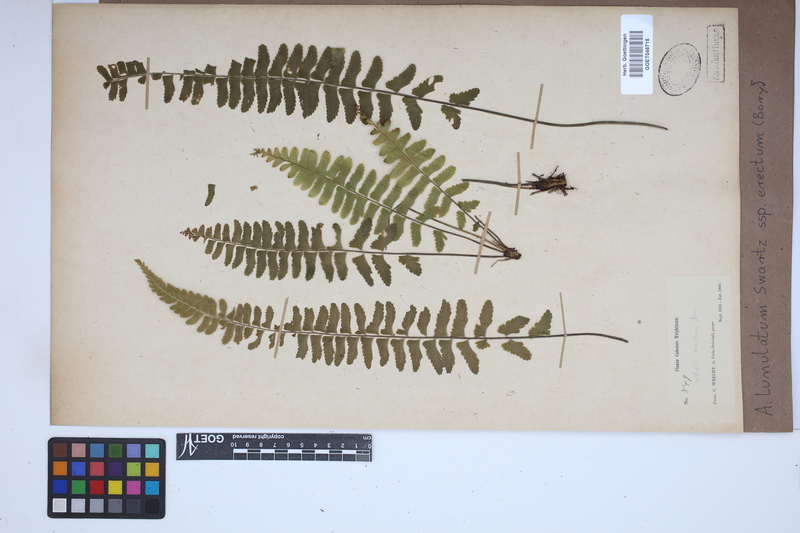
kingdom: Plantae
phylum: Tracheophyta
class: Polypodiopsida
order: Polypodiales
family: Aspleniaceae
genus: Asplenium
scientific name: Asplenium erectum
